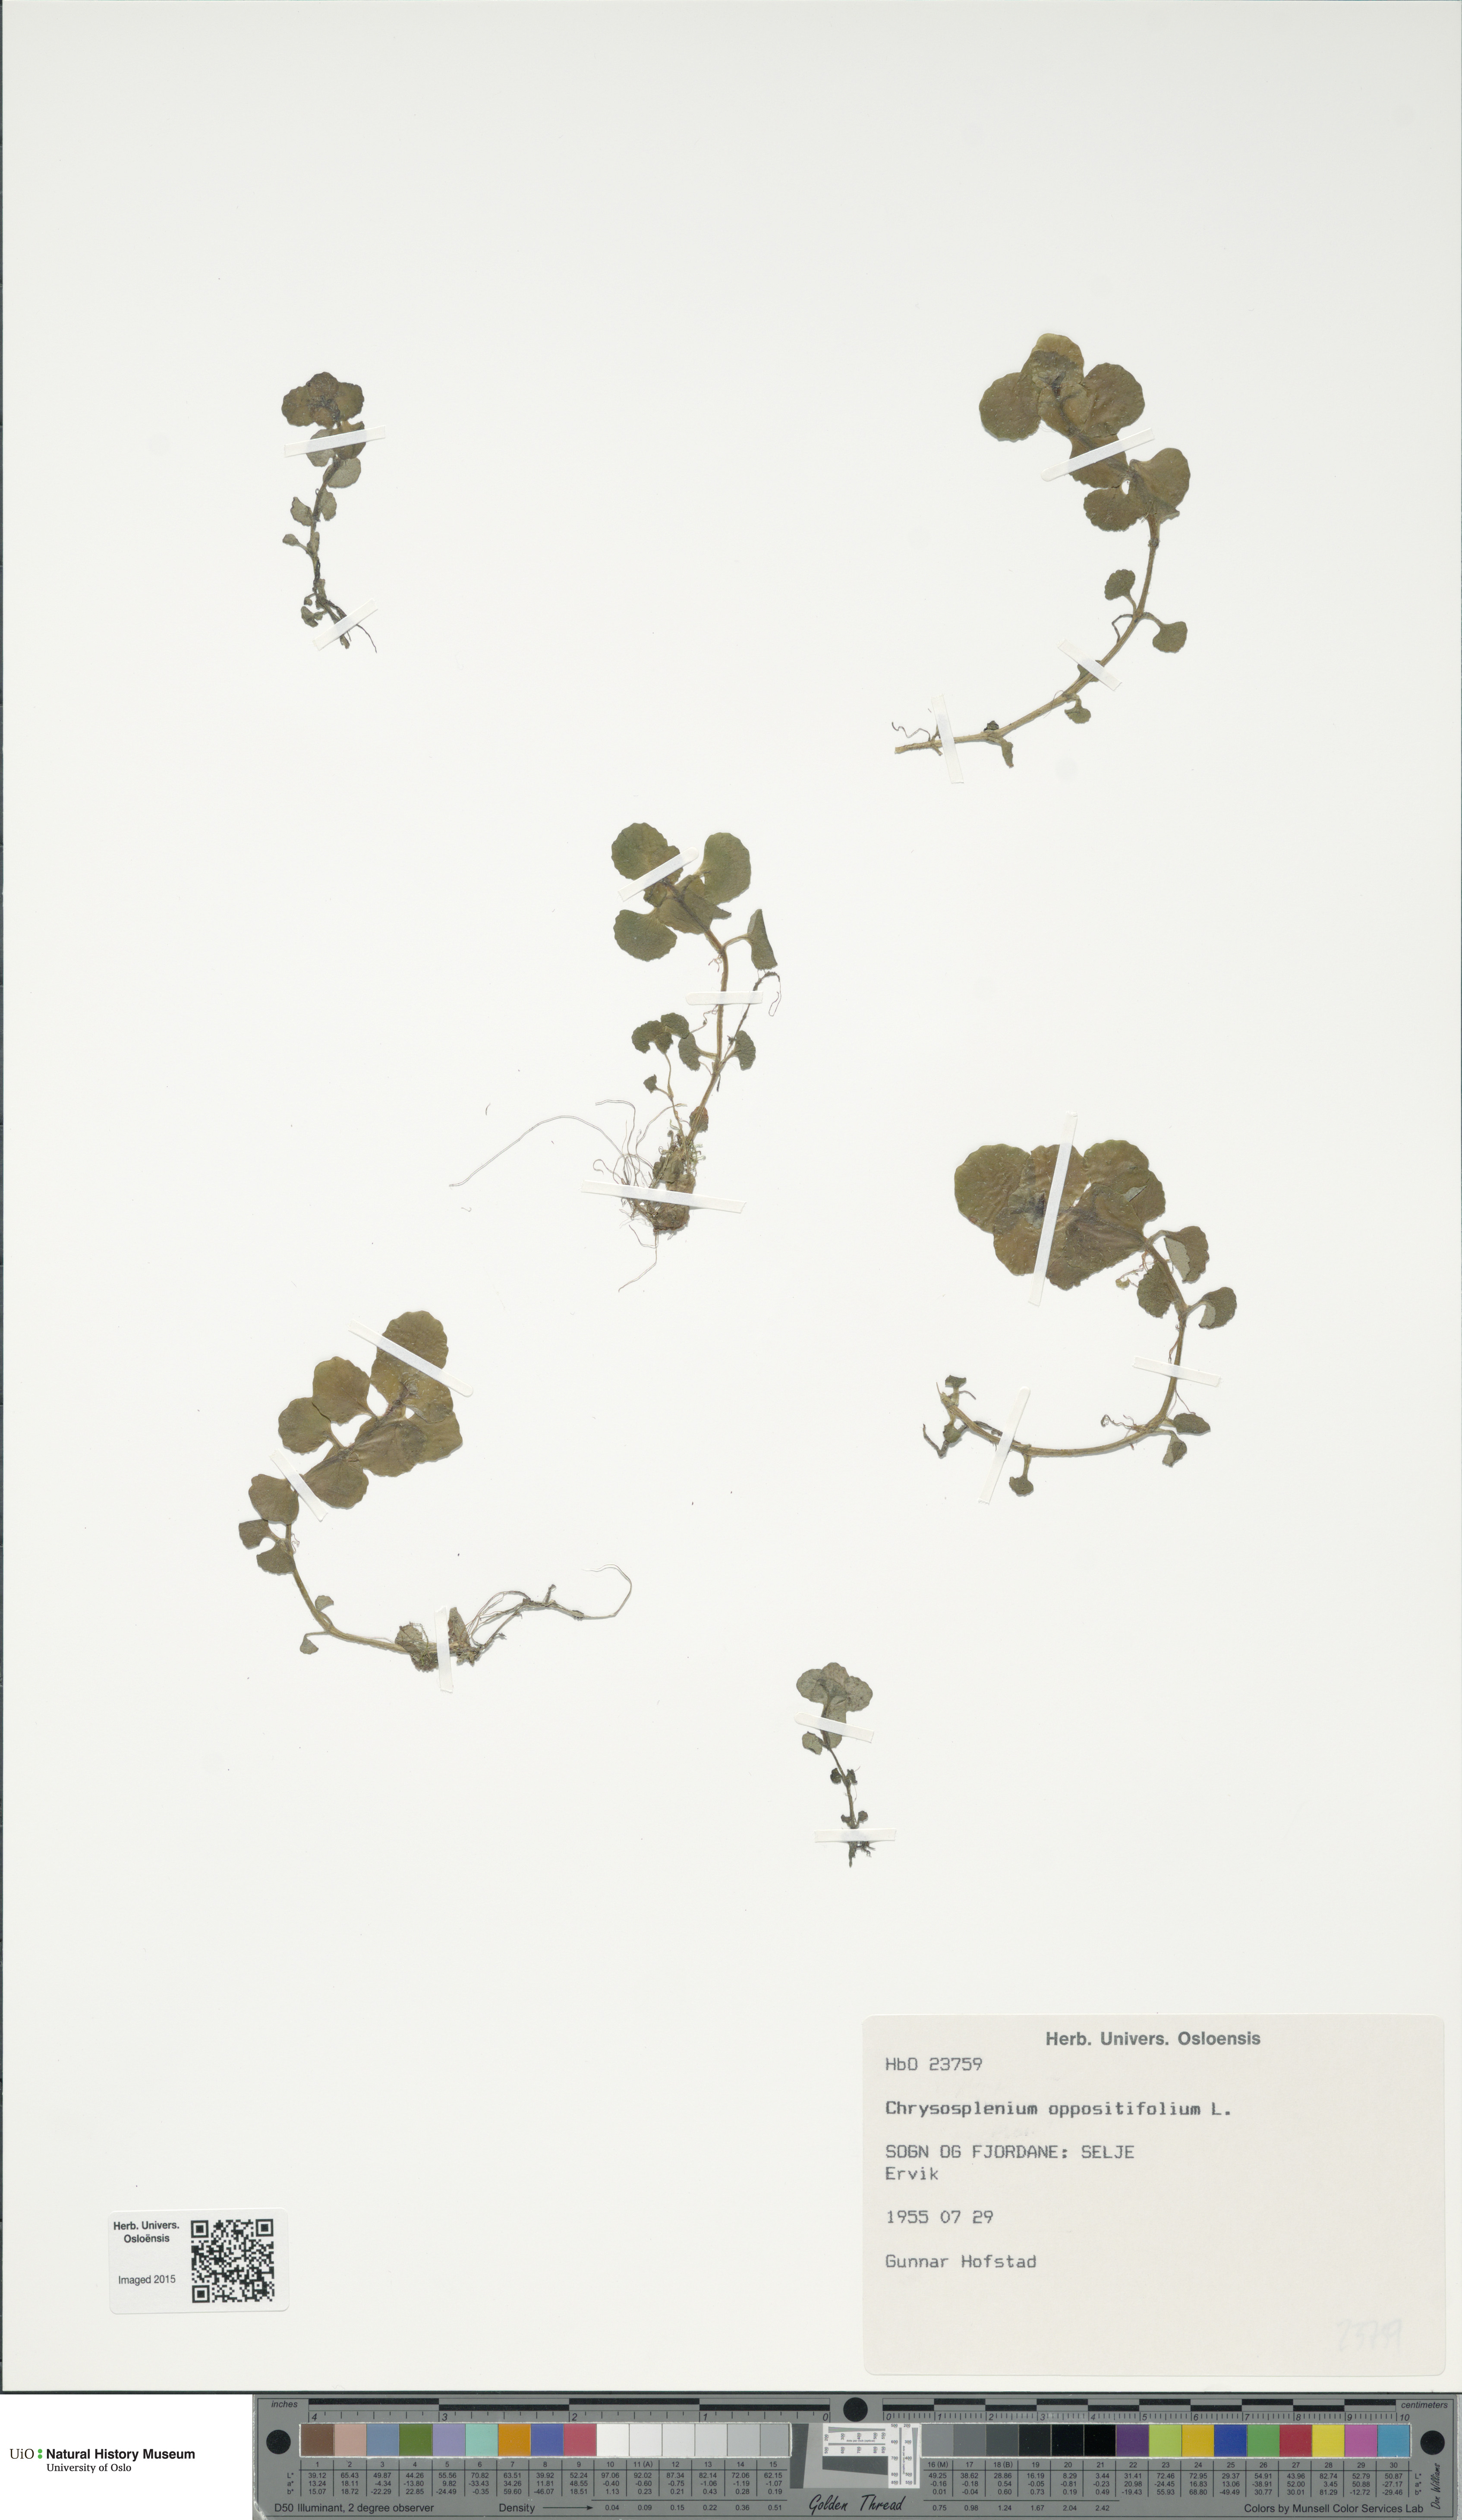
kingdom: Plantae
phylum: Tracheophyta
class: Magnoliopsida
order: Saxifragales
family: Saxifragaceae
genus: Chrysosplenium
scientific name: Chrysosplenium oppositifolium
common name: Opposite-leaved golden-saxifrage
